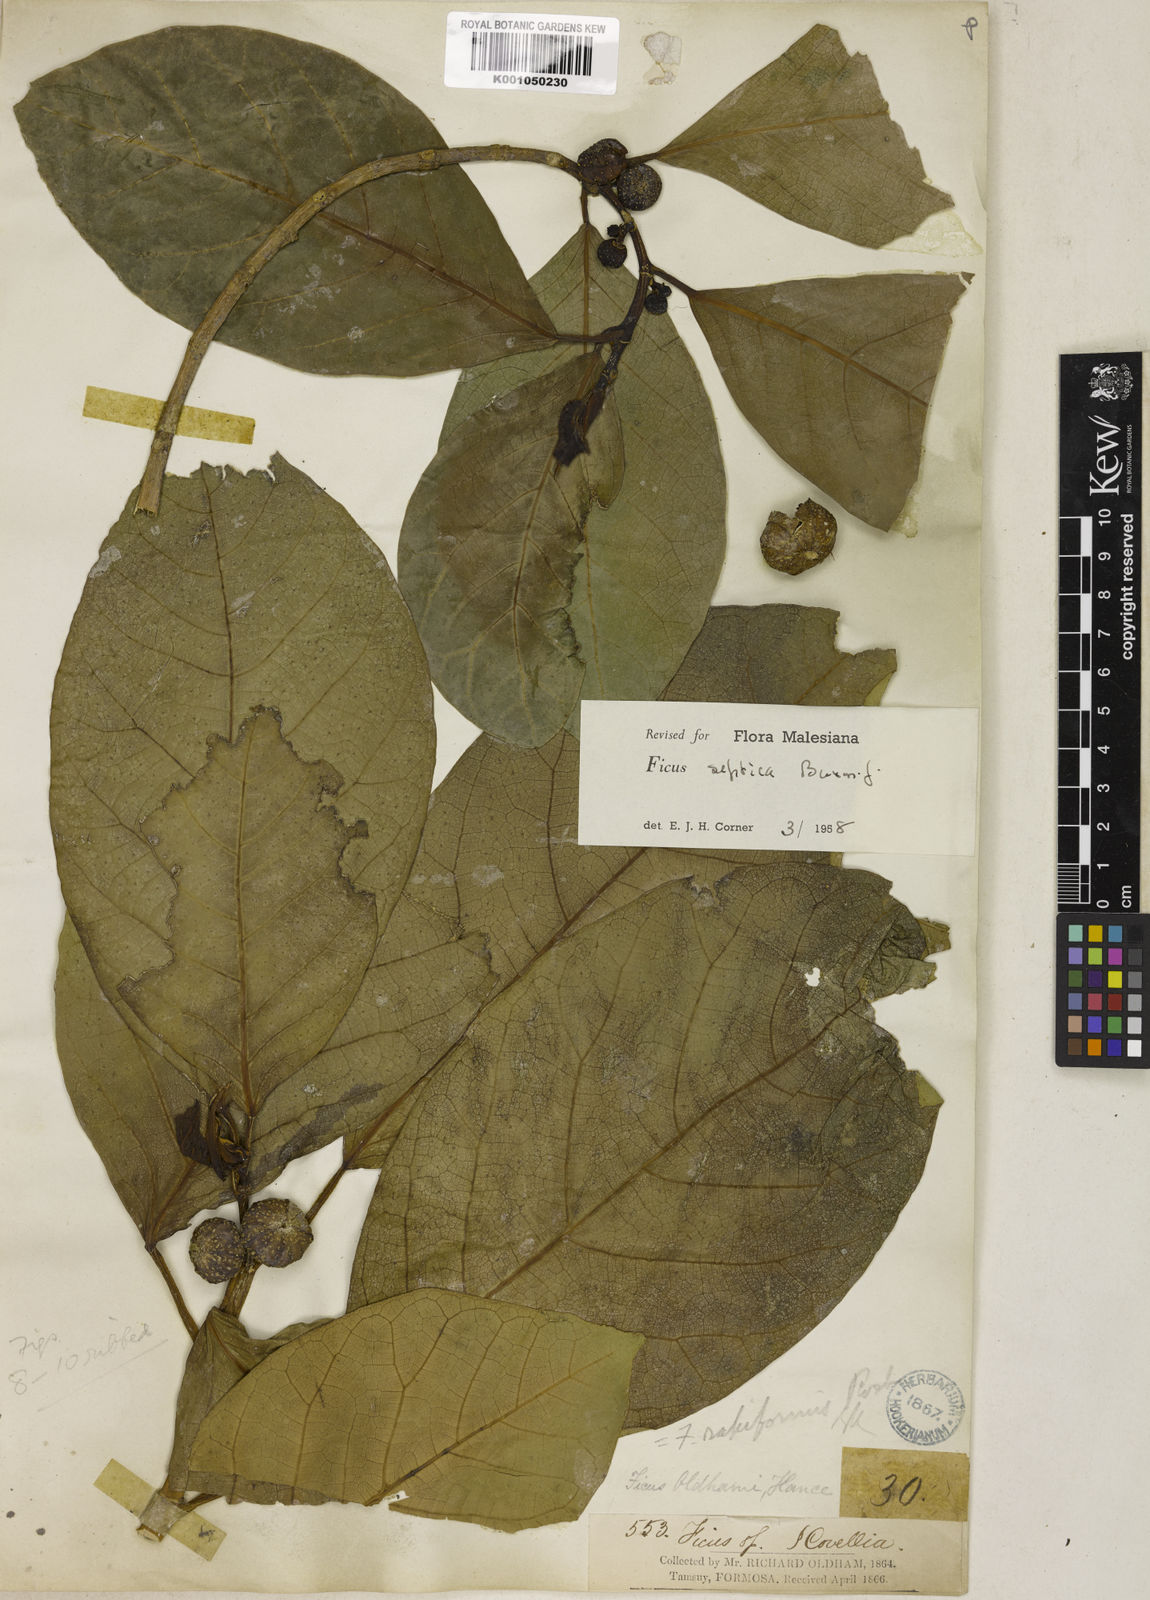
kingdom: Plantae
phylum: Tracheophyta
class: Magnoliopsida
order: Rosales
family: Moraceae
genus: Ficus
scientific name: Ficus septica
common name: Septic fig
